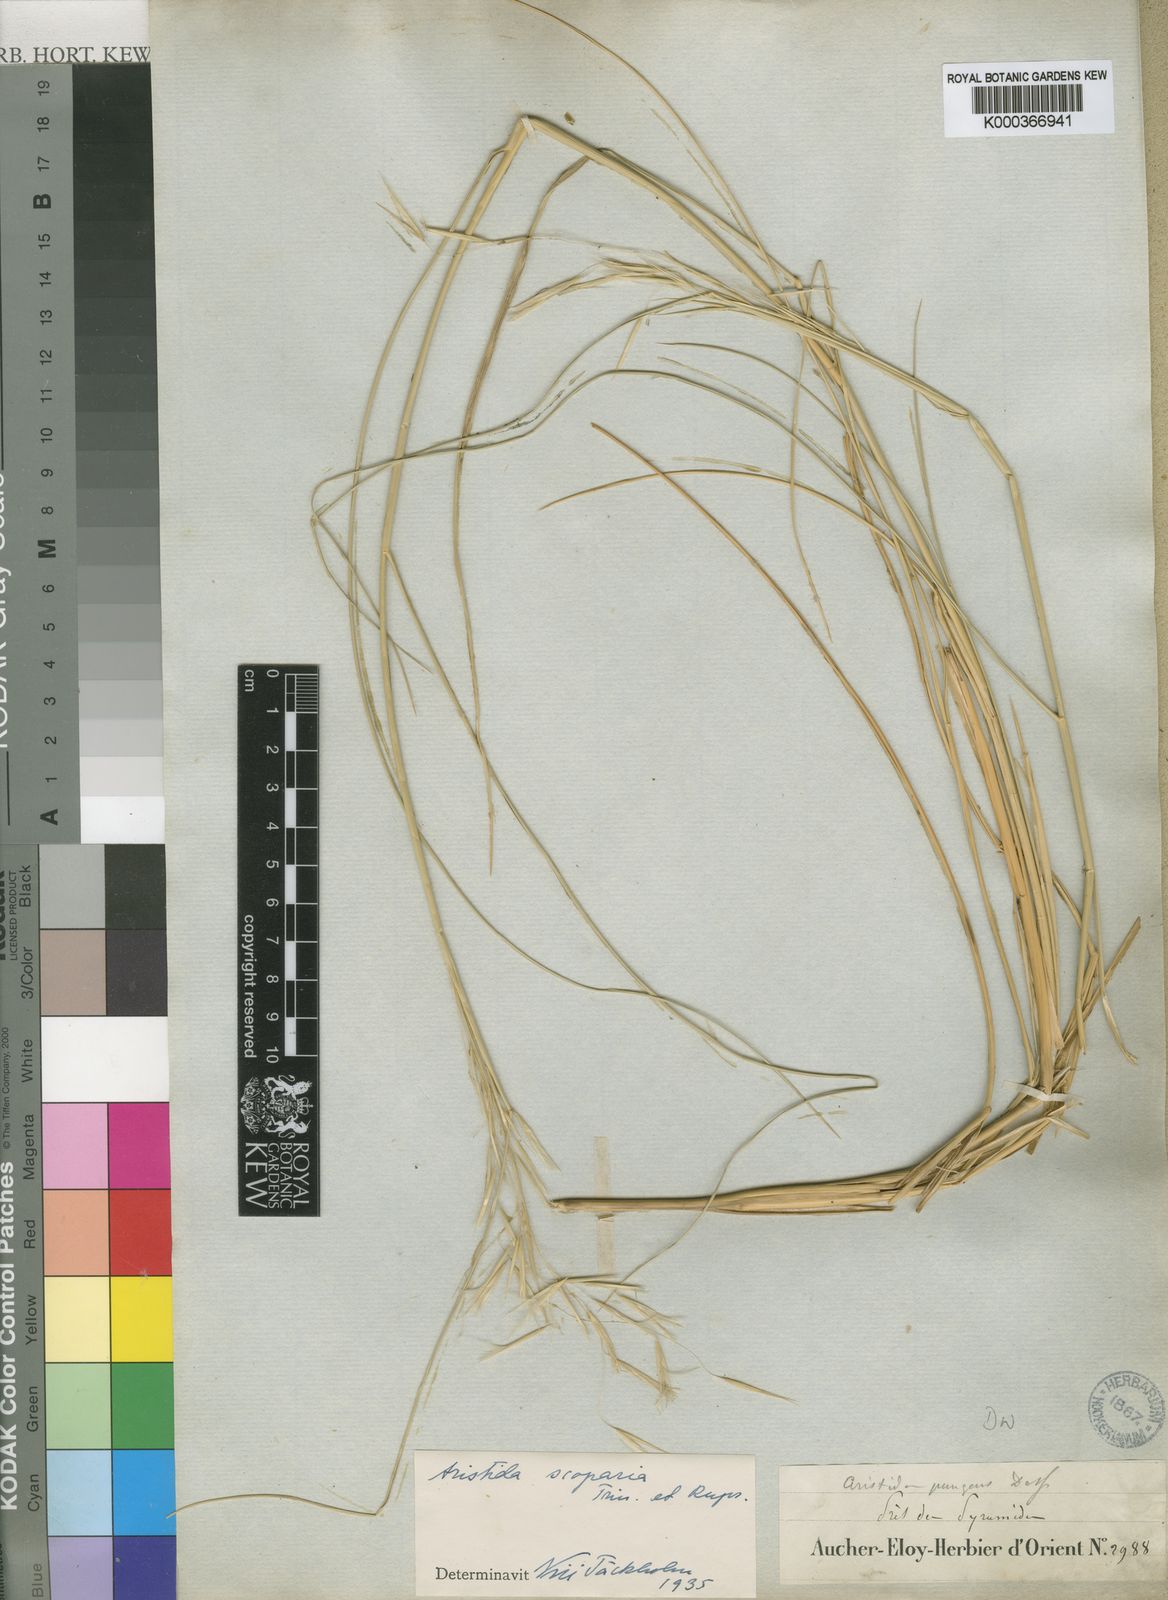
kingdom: Plantae
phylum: Tracheophyta
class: Liliopsida
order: Poales
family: Poaceae
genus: Stipagrostis
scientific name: Stipagrostis scoparia
